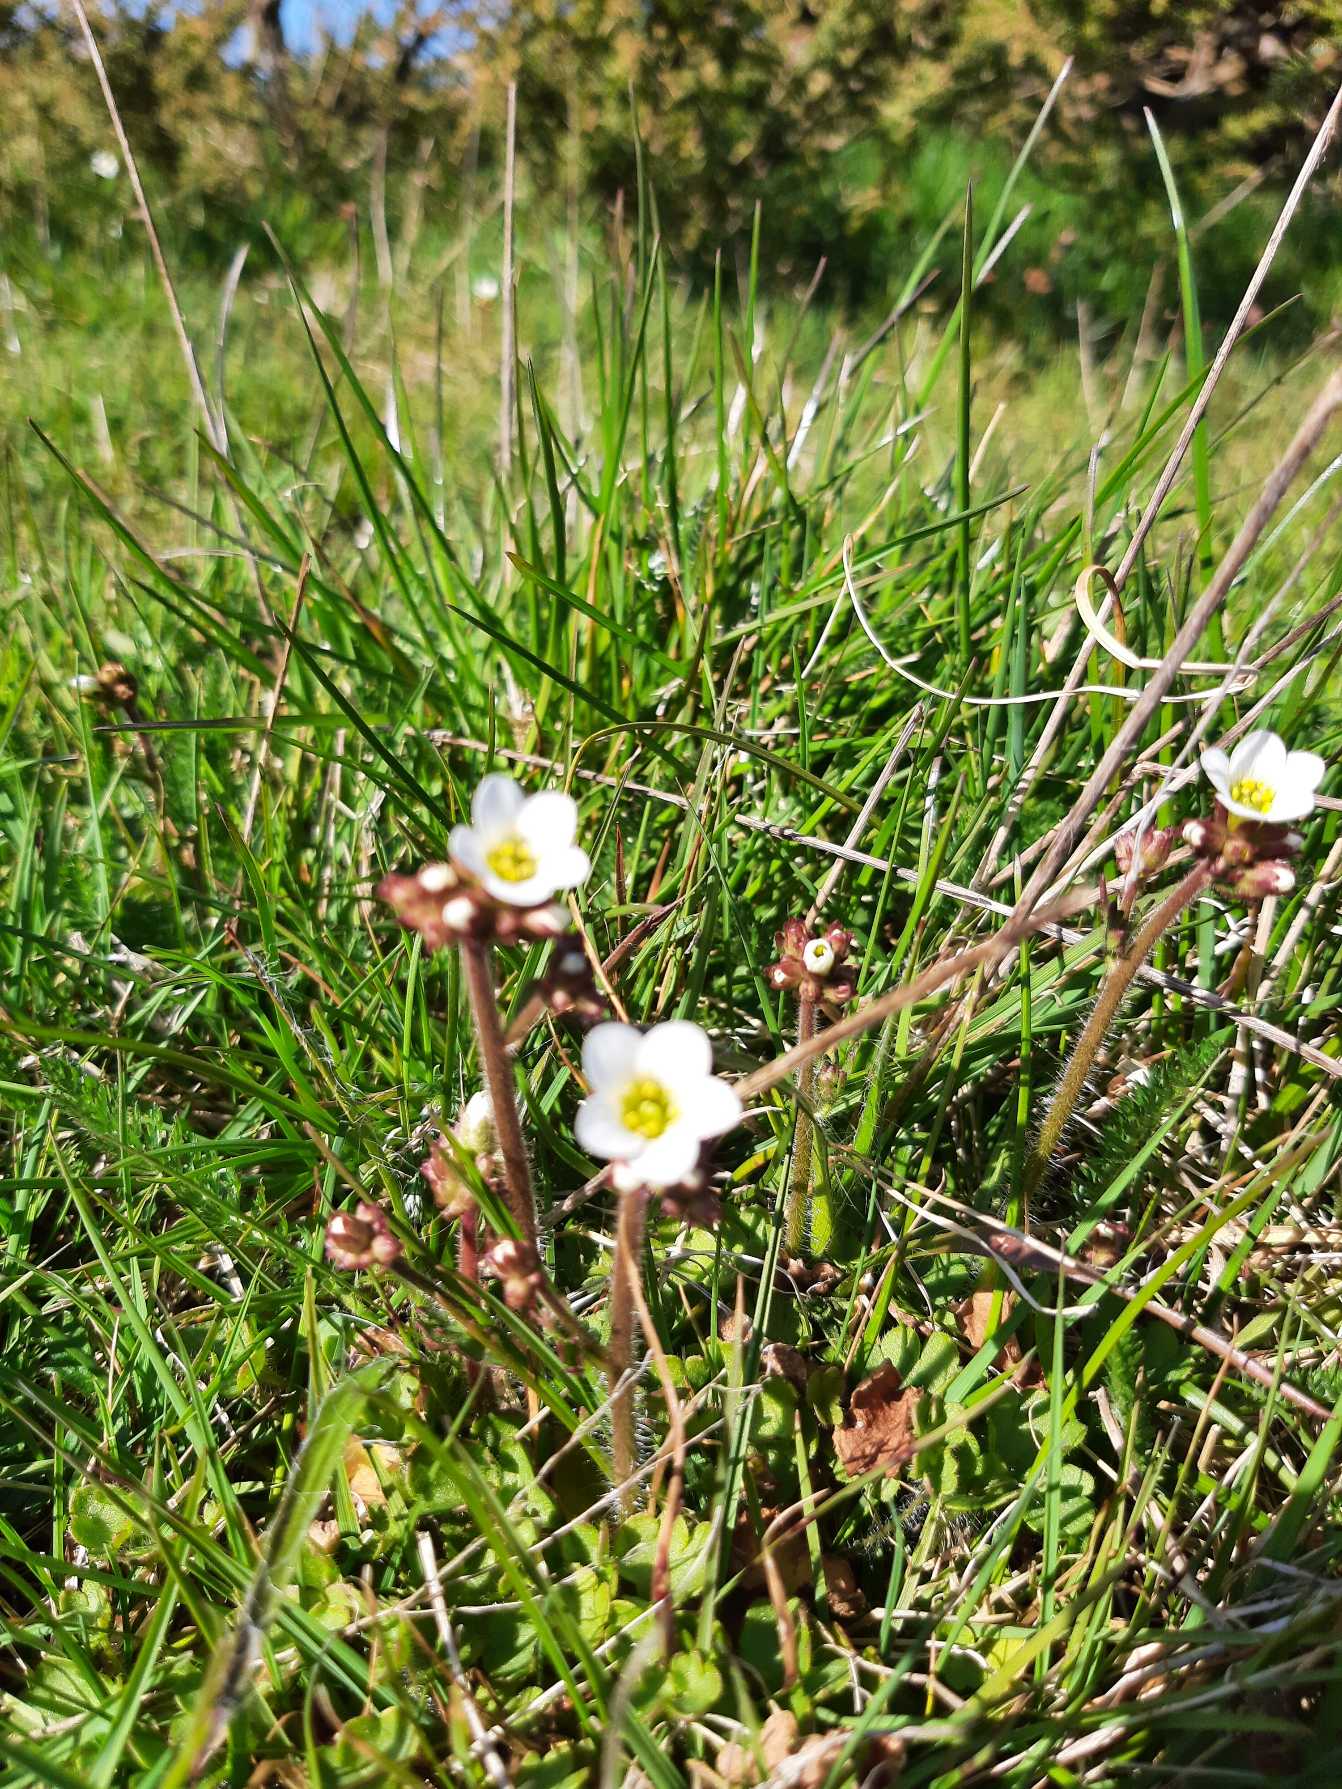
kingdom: Plantae
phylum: Tracheophyta
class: Magnoliopsida
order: Saxifragales
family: Saxifragaceae
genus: Saxifraga
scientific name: Saxifraga granulata
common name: Kornet stenbræk
